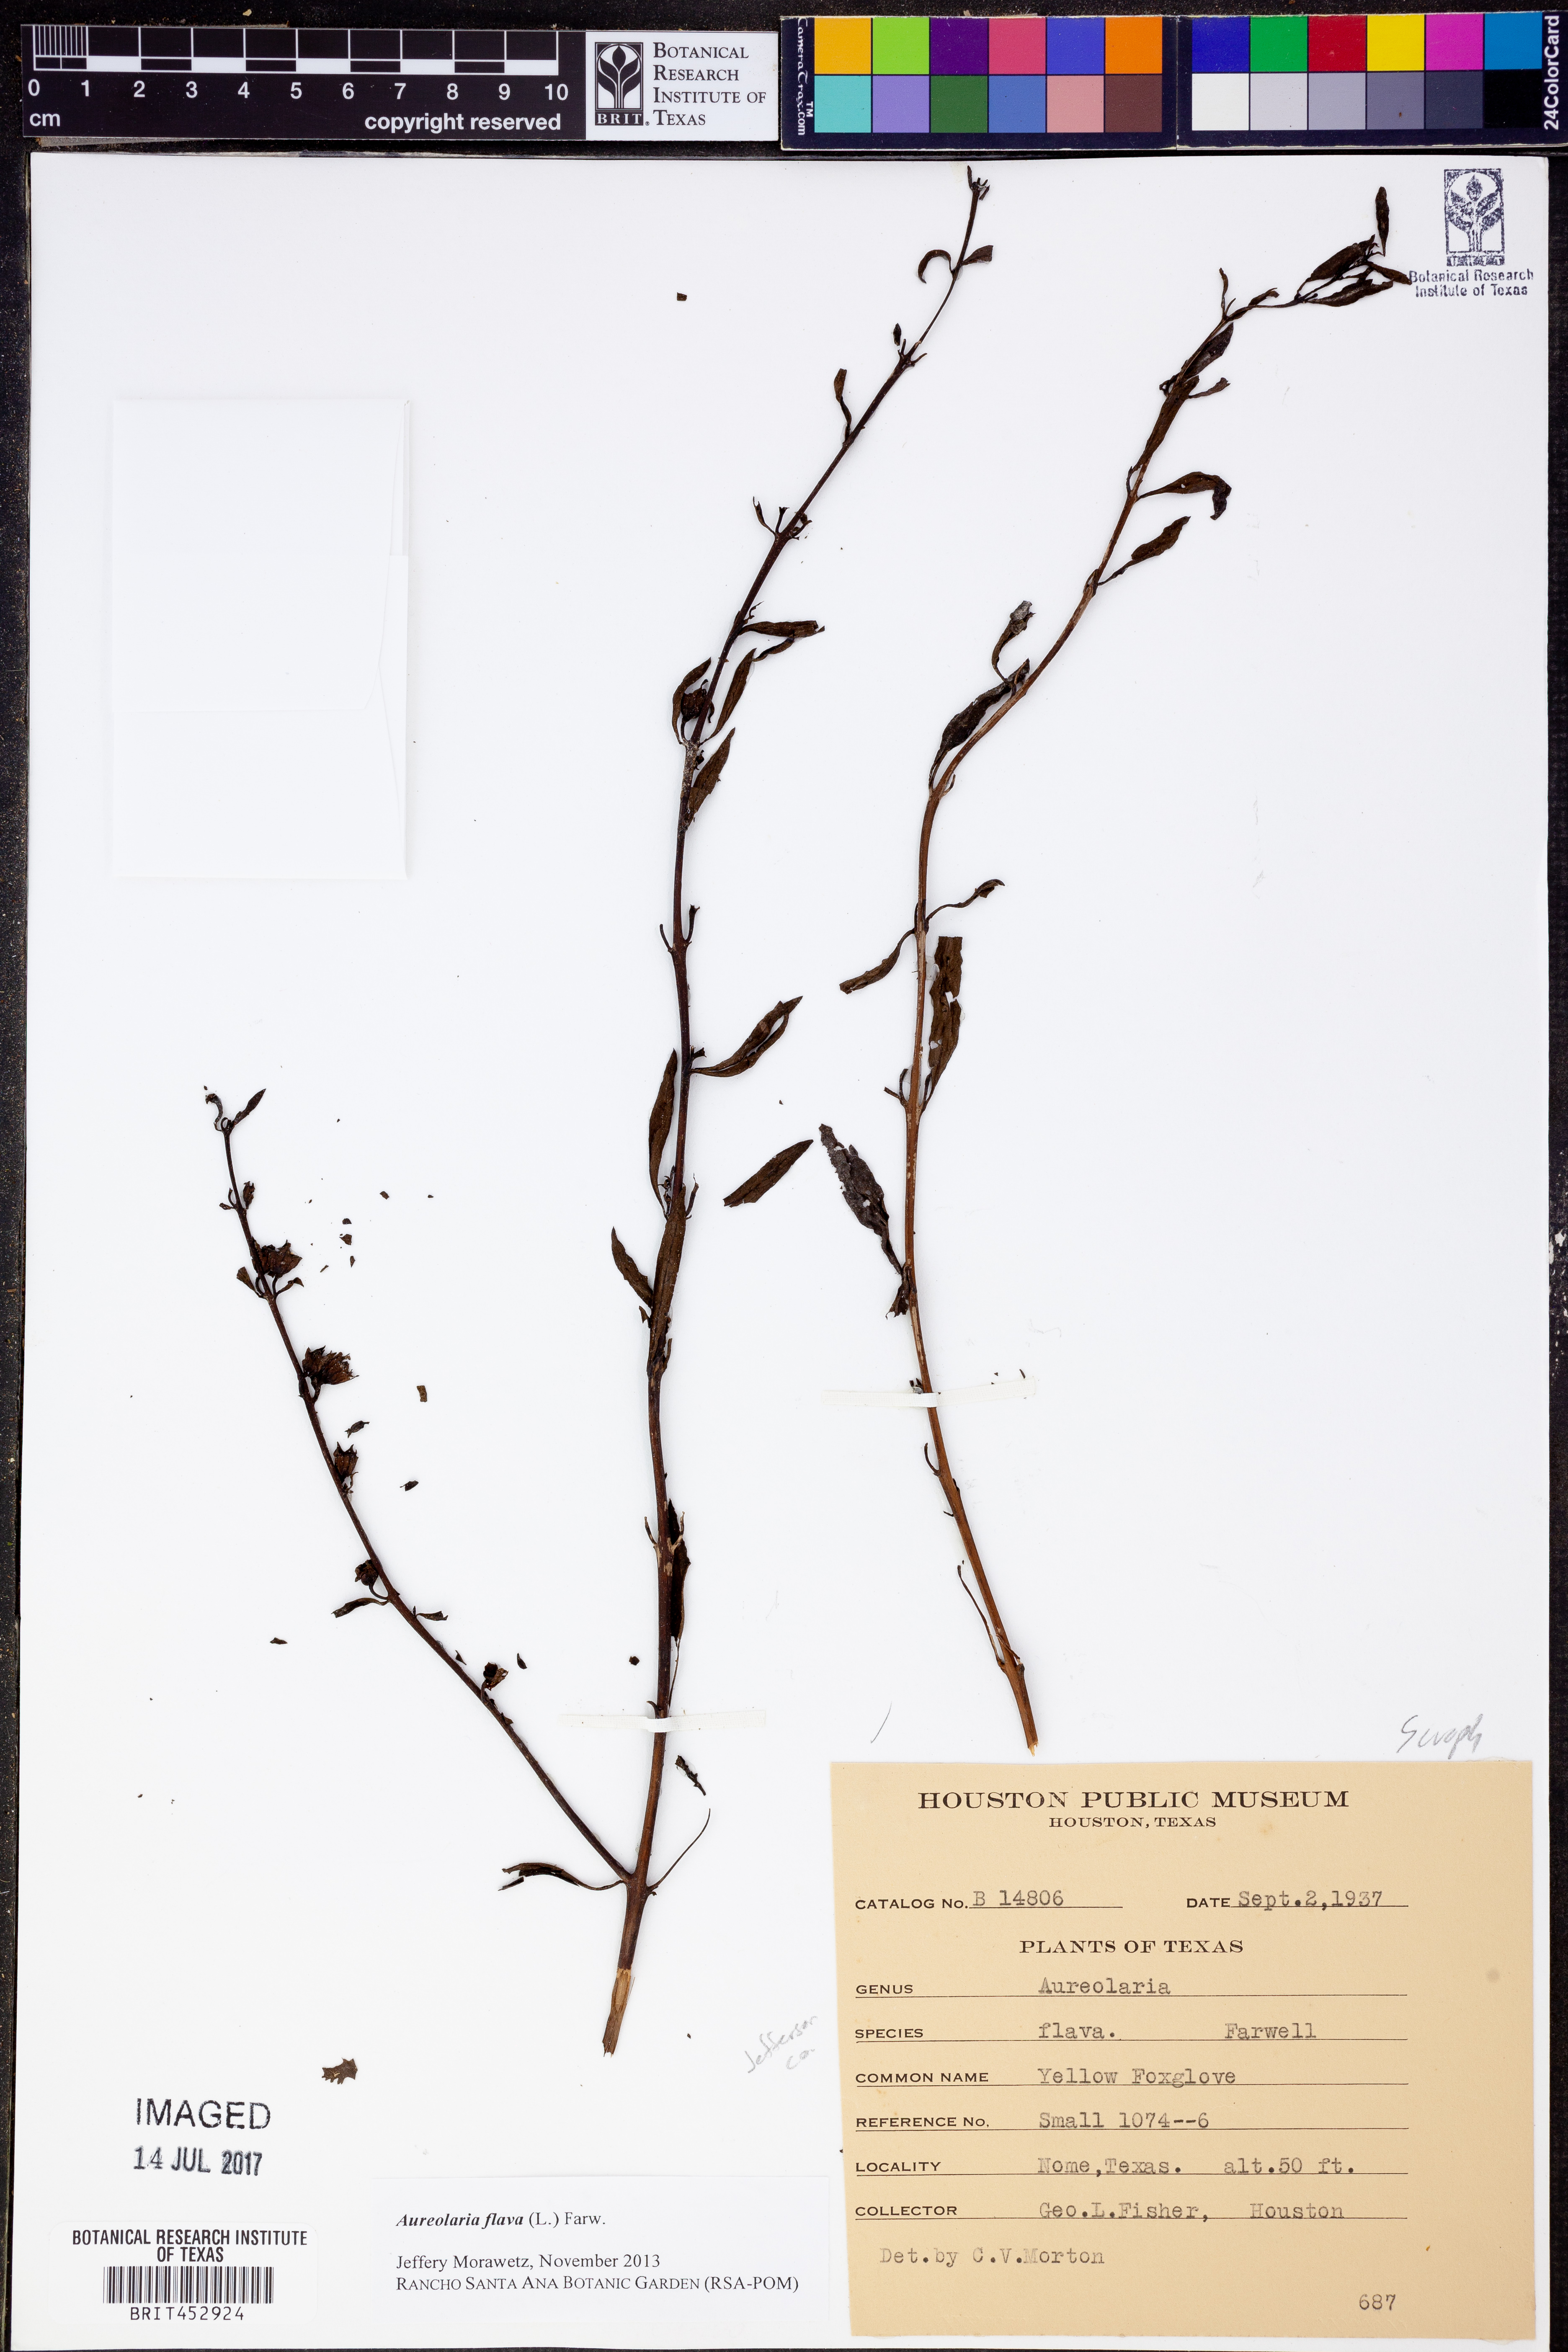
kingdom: Plantae
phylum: Tracheophyta
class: Magnoliopsida
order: Lamiales
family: Orobanchaceae
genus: Aureolaria
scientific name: Aureolaria flava
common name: Smooth false foxglove
